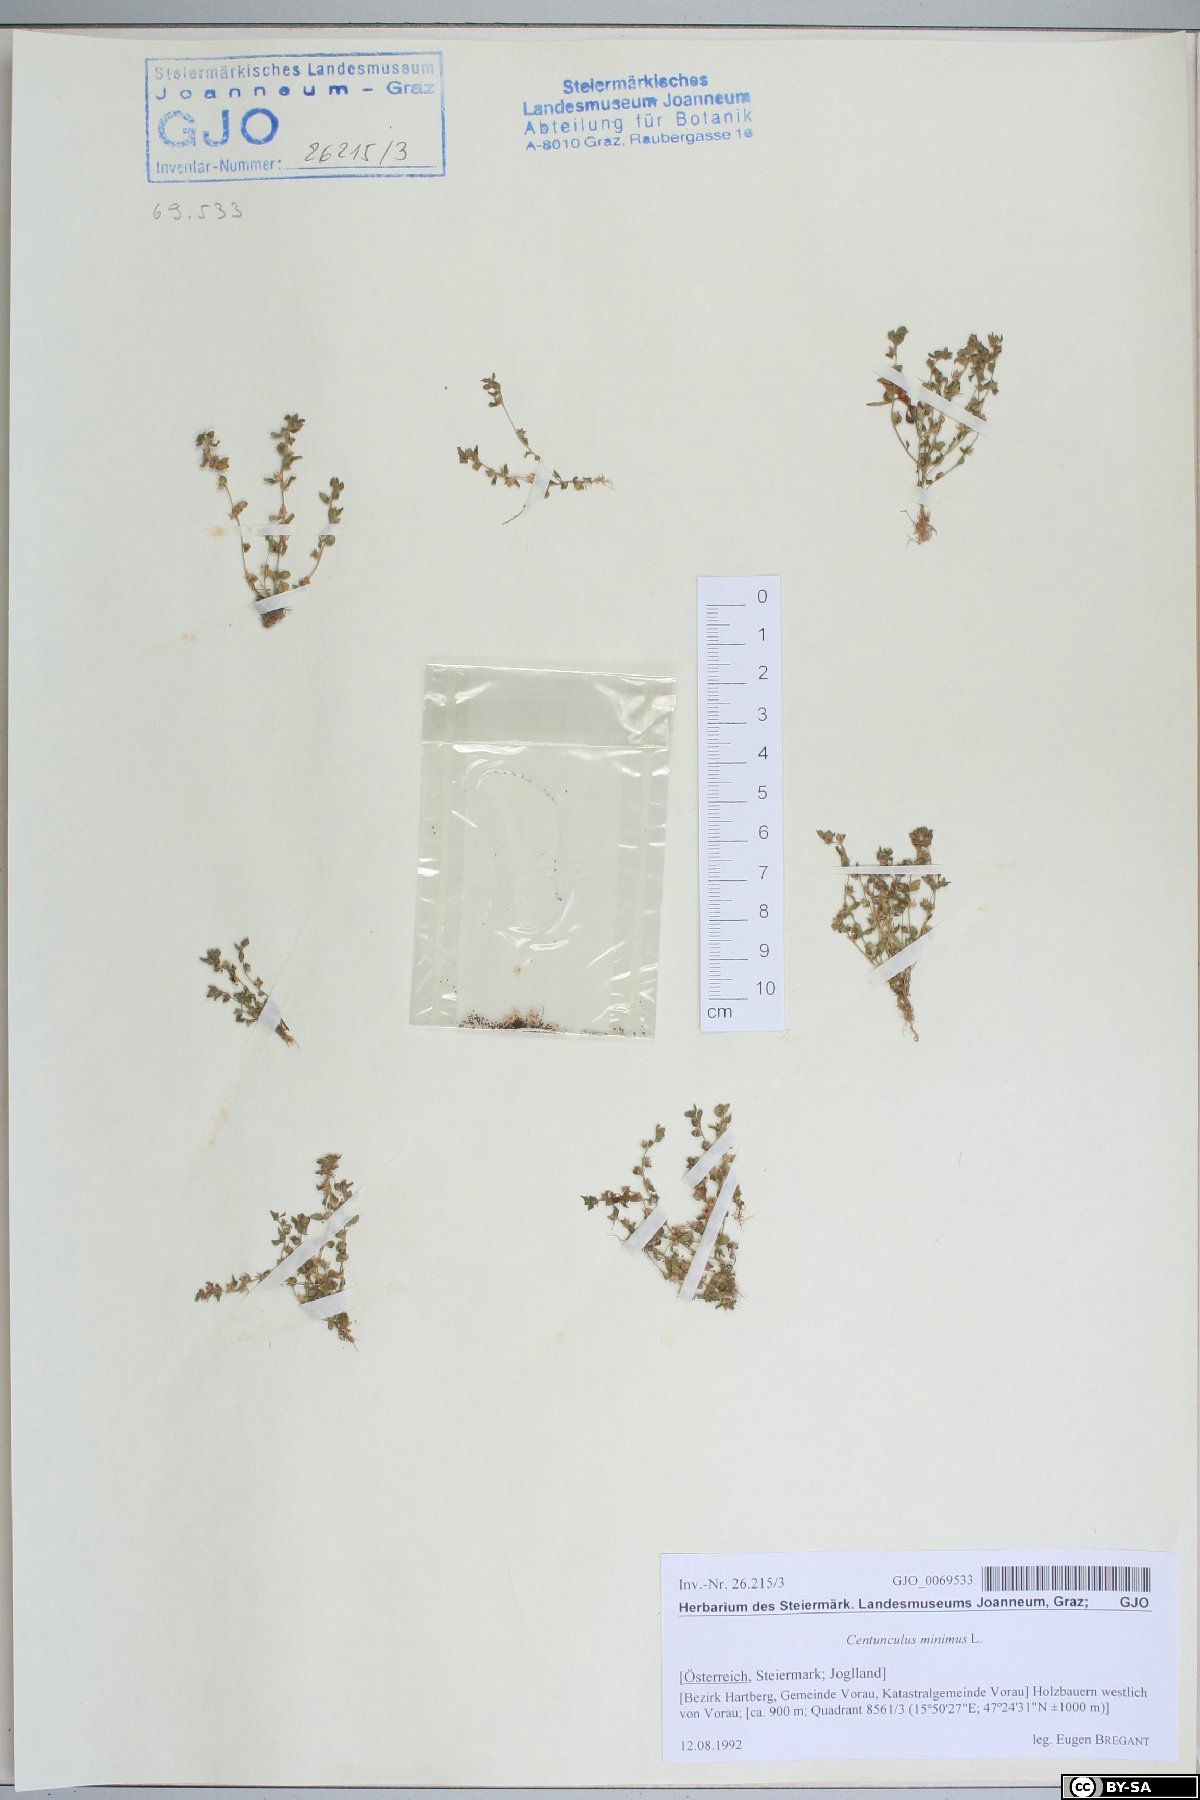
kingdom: Plantae
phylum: Tracheophyta
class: Magnoliopsida
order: Ericales
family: Primulaceae
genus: Lysimachia
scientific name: Lysimachia minima
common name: Chaffweed
